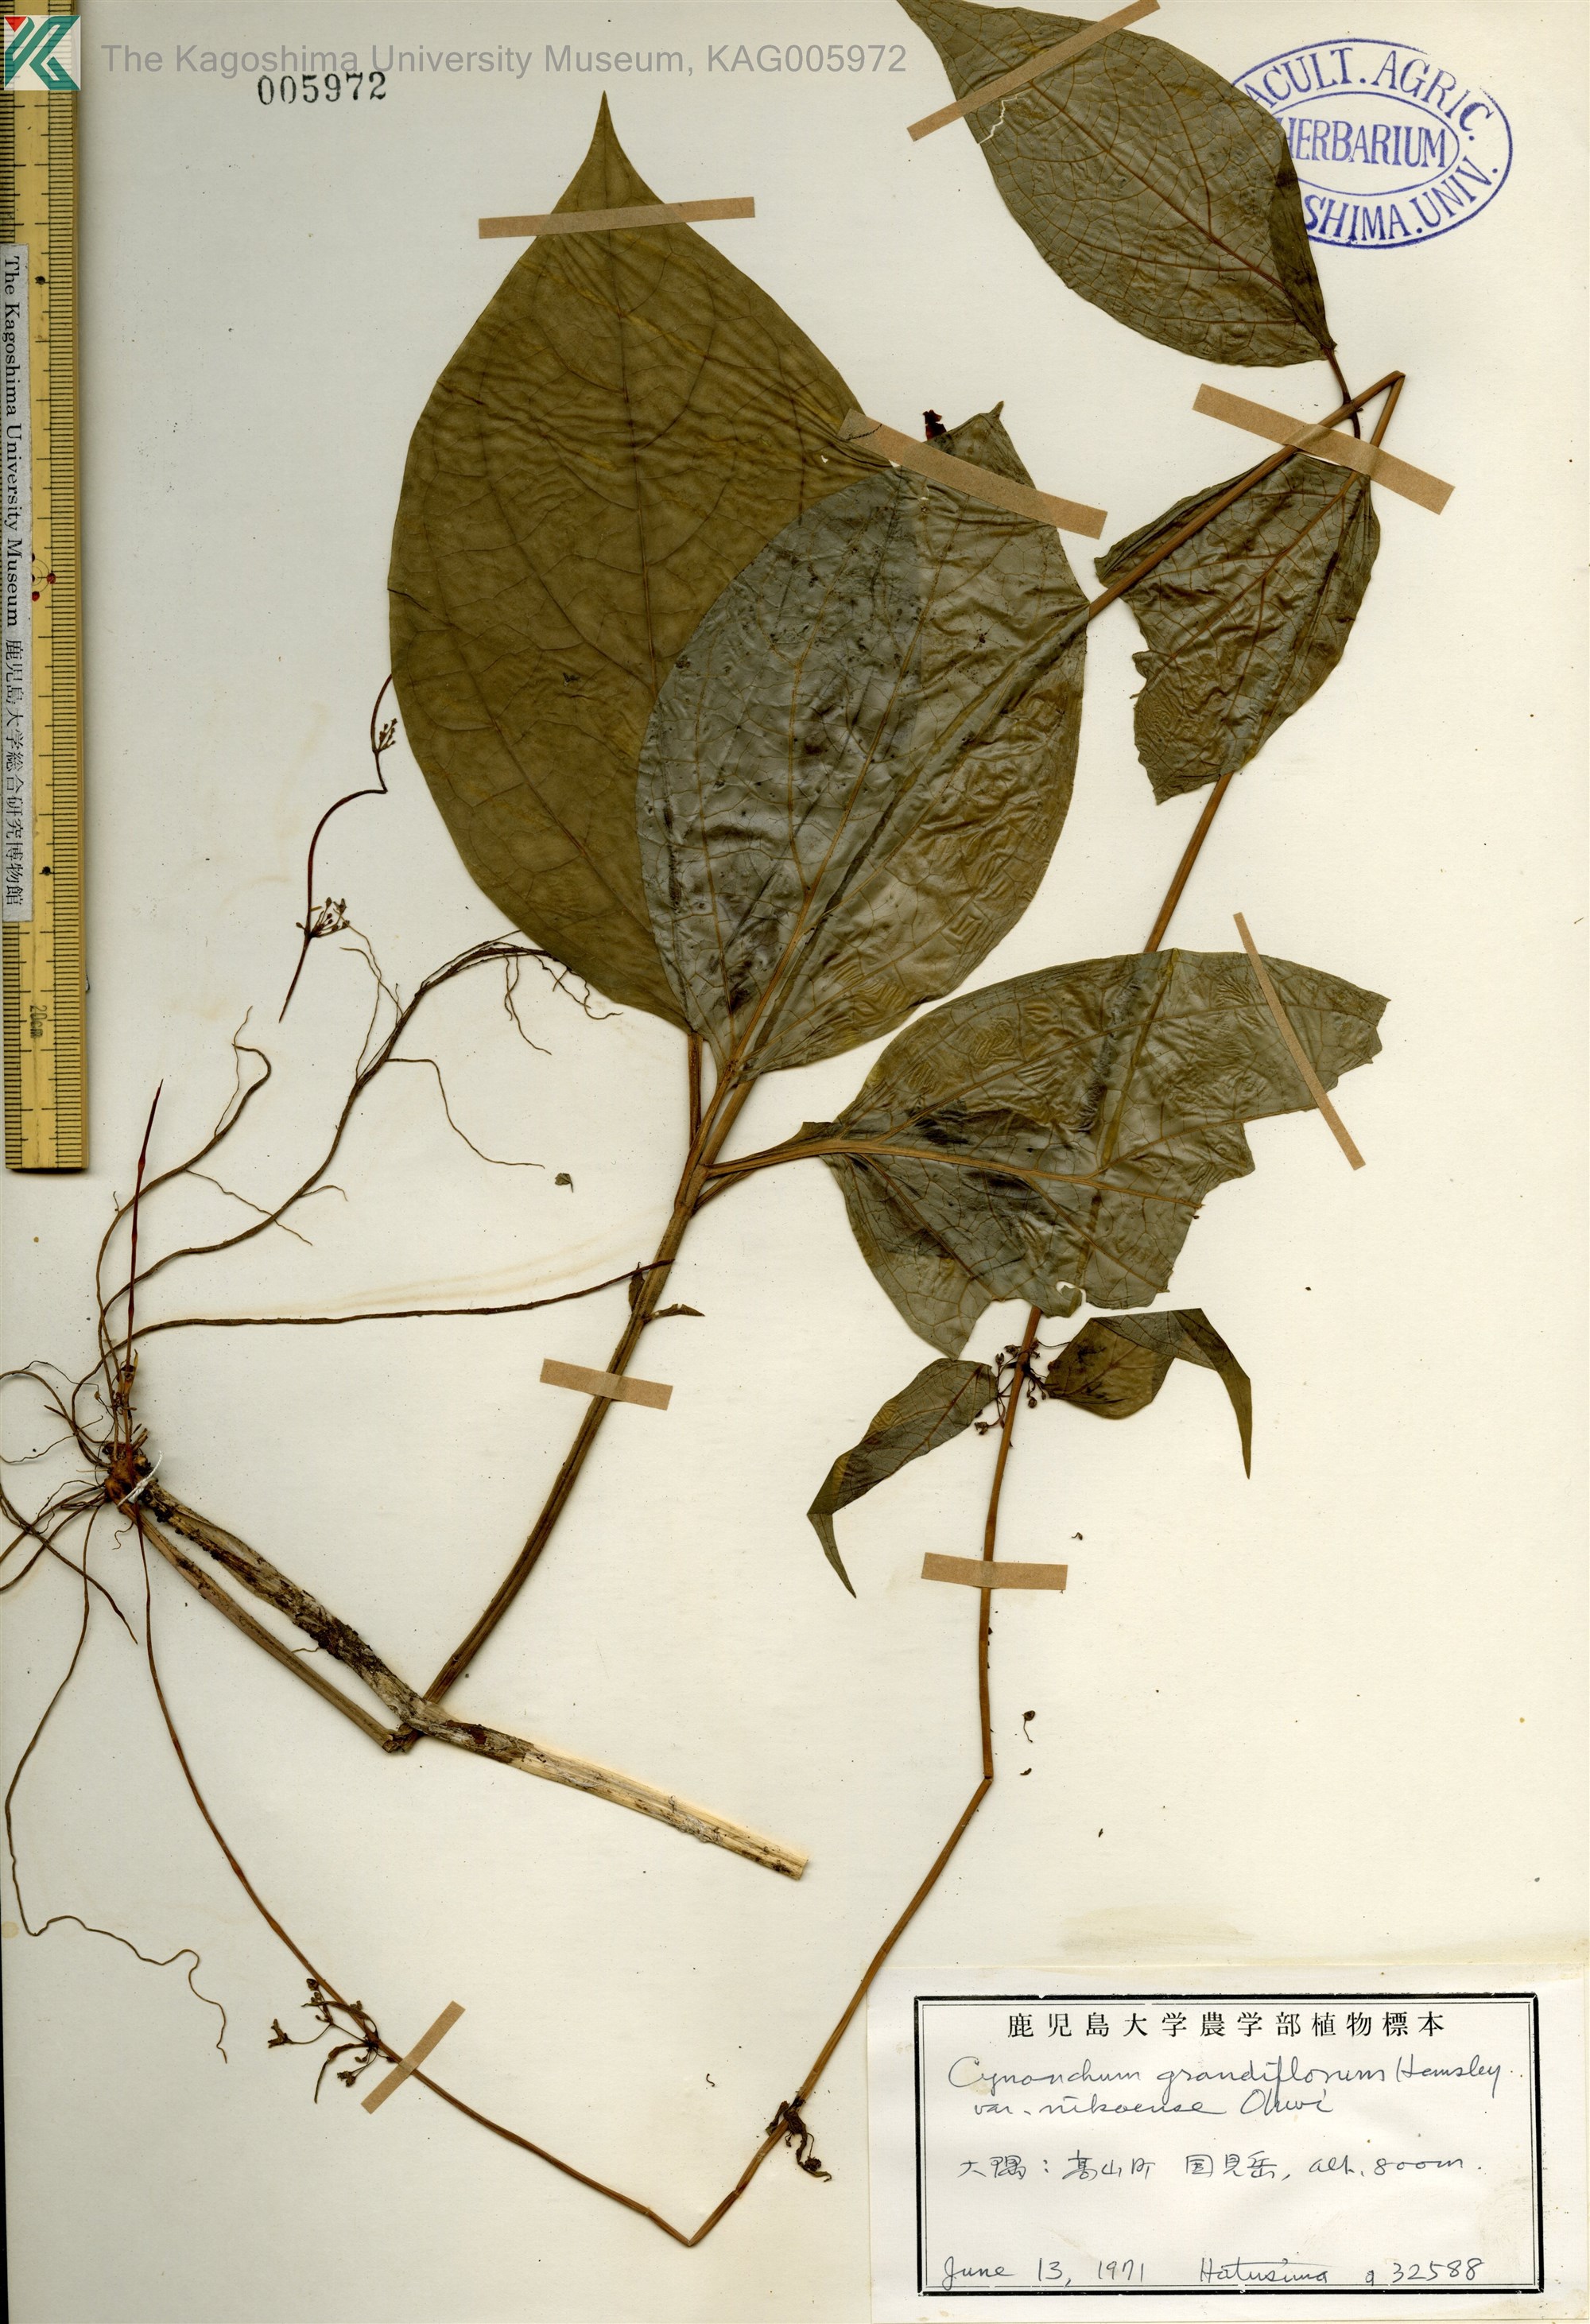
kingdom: Plantae
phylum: Tracheophyta
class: Magnoliopsida
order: Gentianales
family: Apocynaceae
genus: Vincetoxicum
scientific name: Vincetoxicum inamoenum
